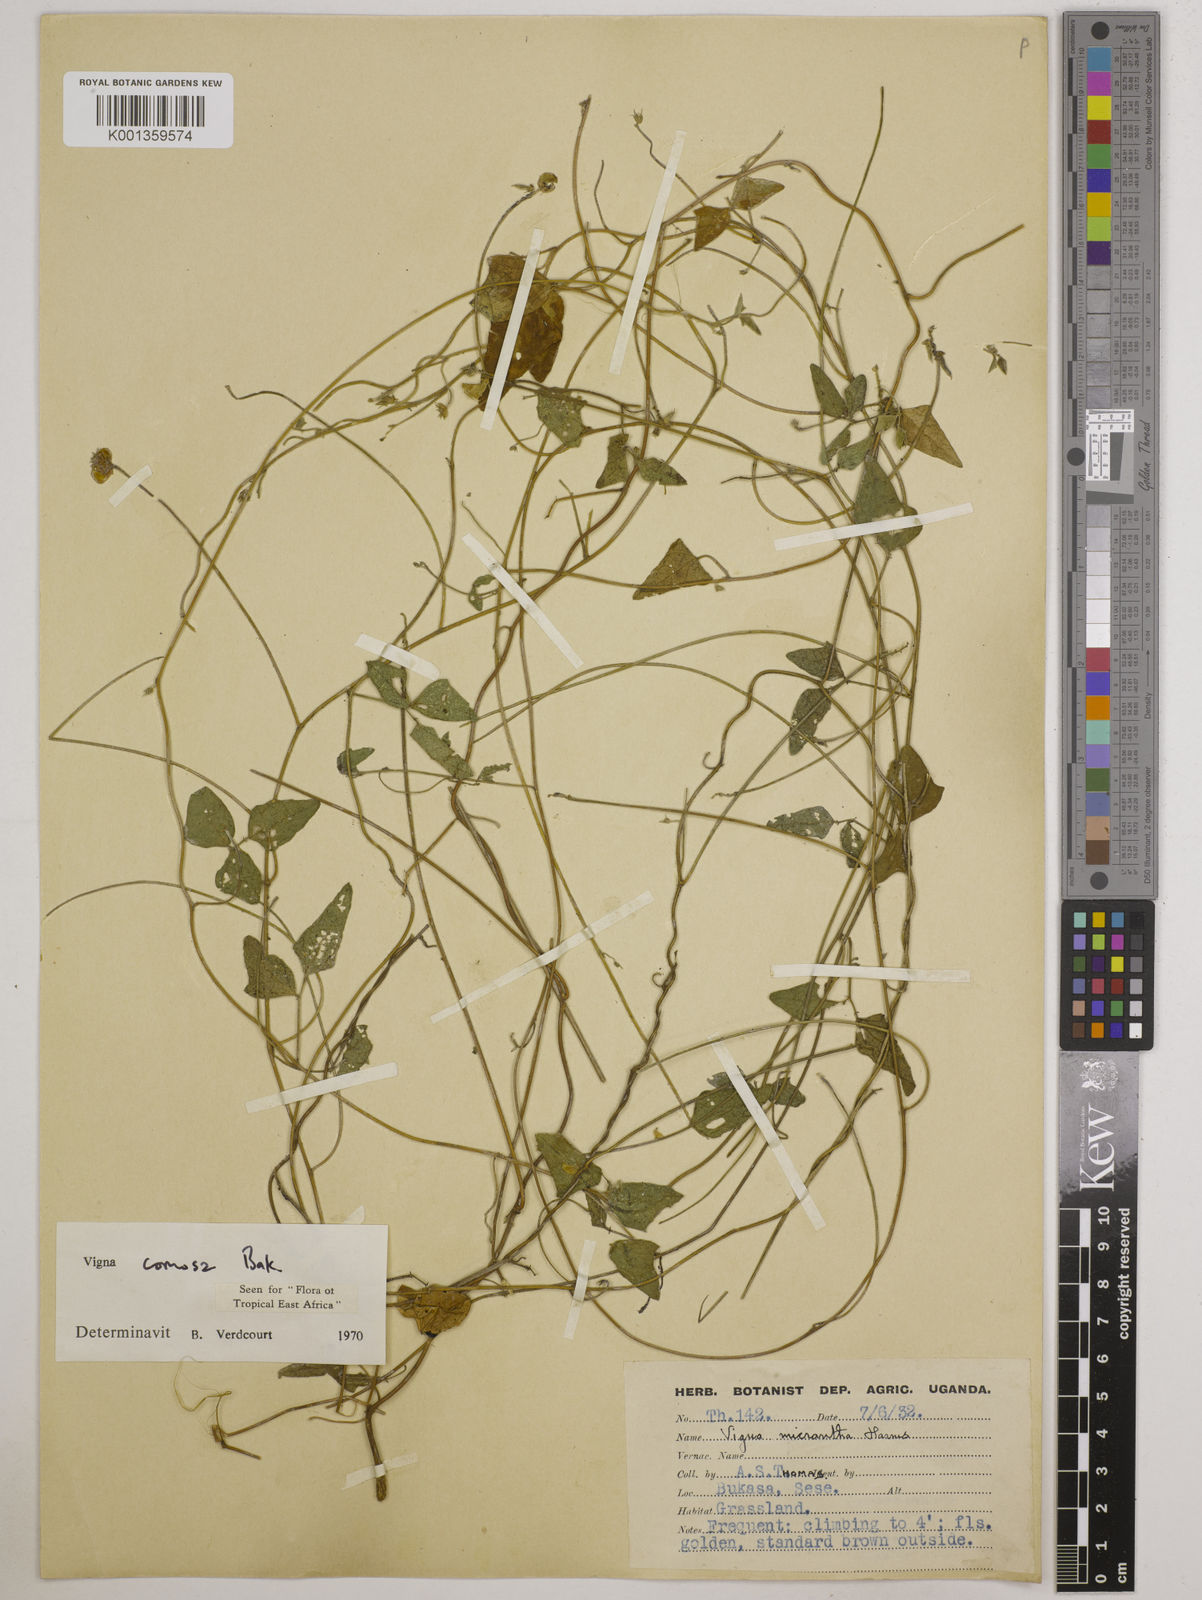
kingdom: Plantae
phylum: Tracheophyta
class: Magnoliopsida
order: Fabales
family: Fabaceae
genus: Vigna
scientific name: Vigna comosa
